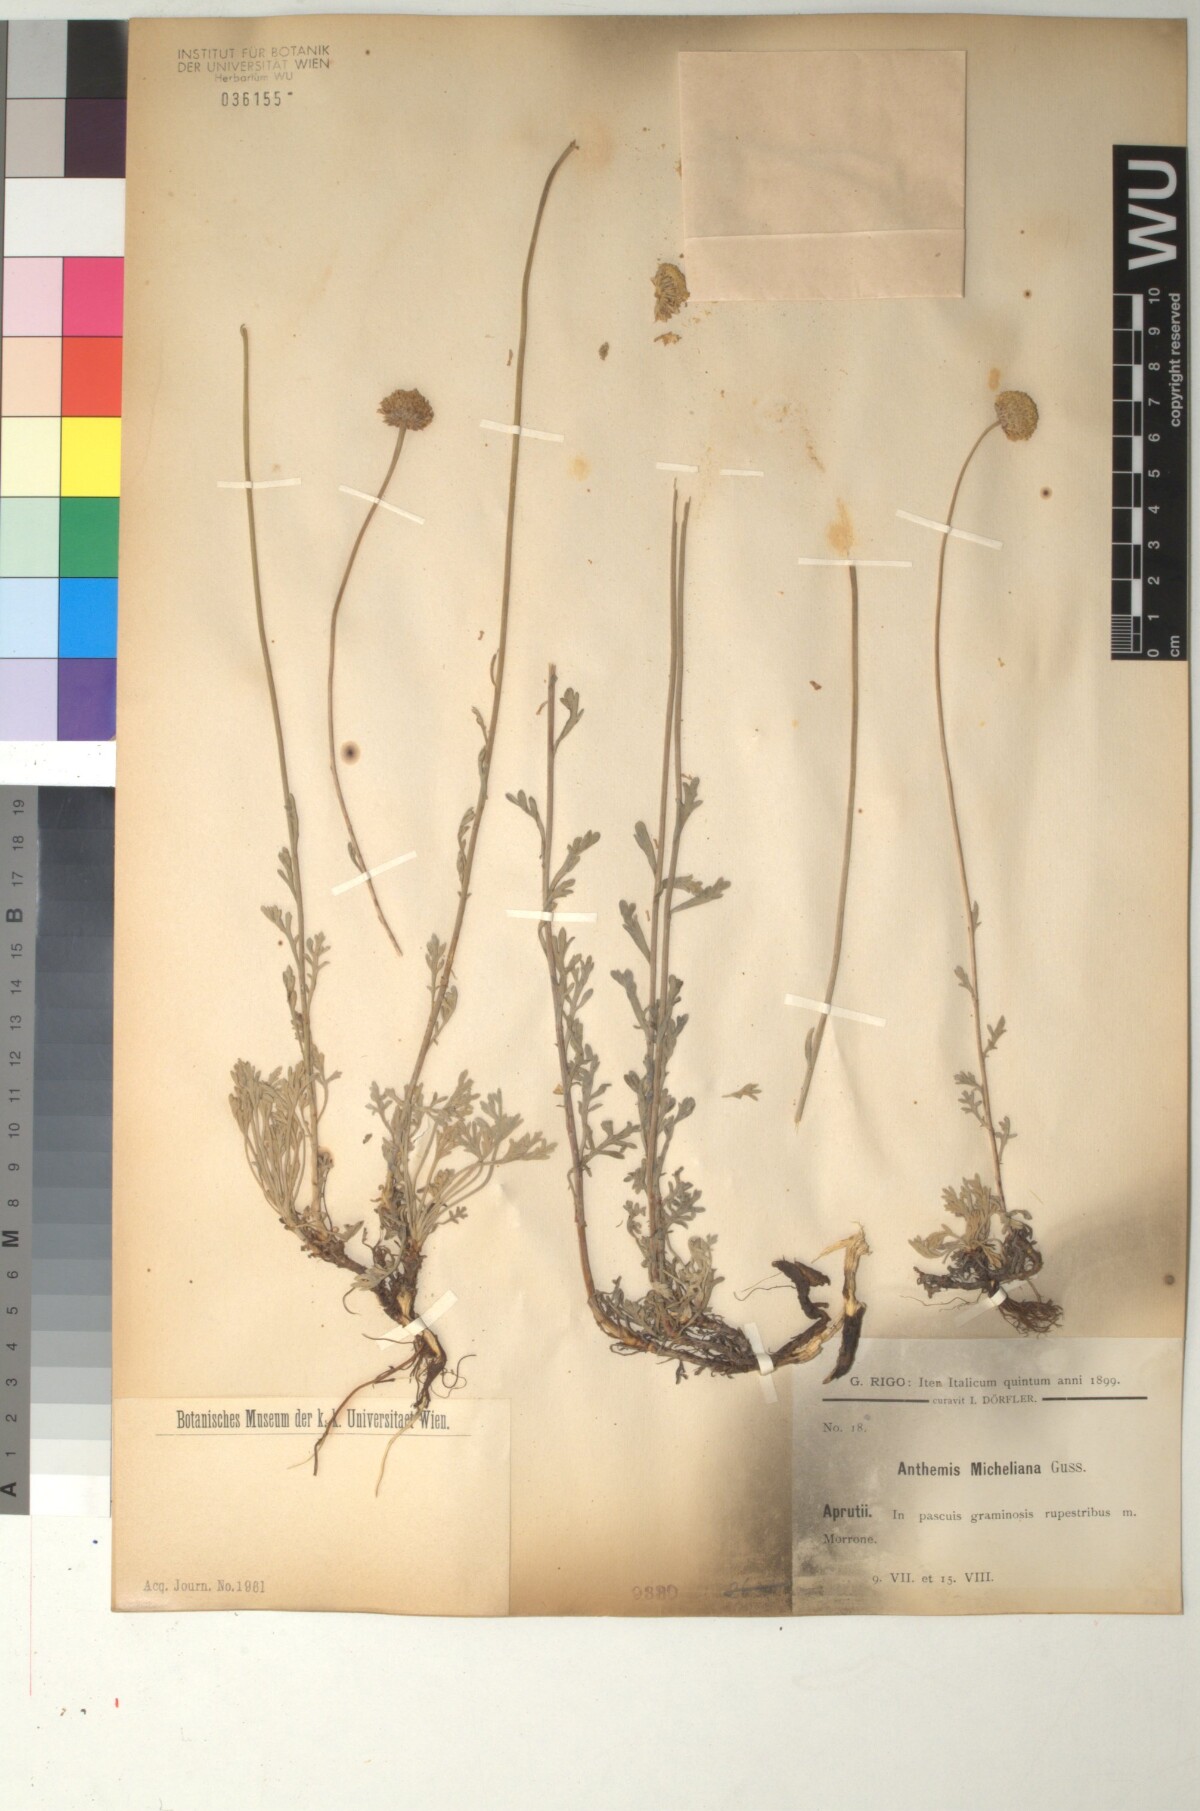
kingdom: Plantae
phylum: Tracheophyta
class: Magnoliopsida
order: Asterales
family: Asteraceae
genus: Anthemis
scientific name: Anthemis cretica
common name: Mountain dog-daisy
